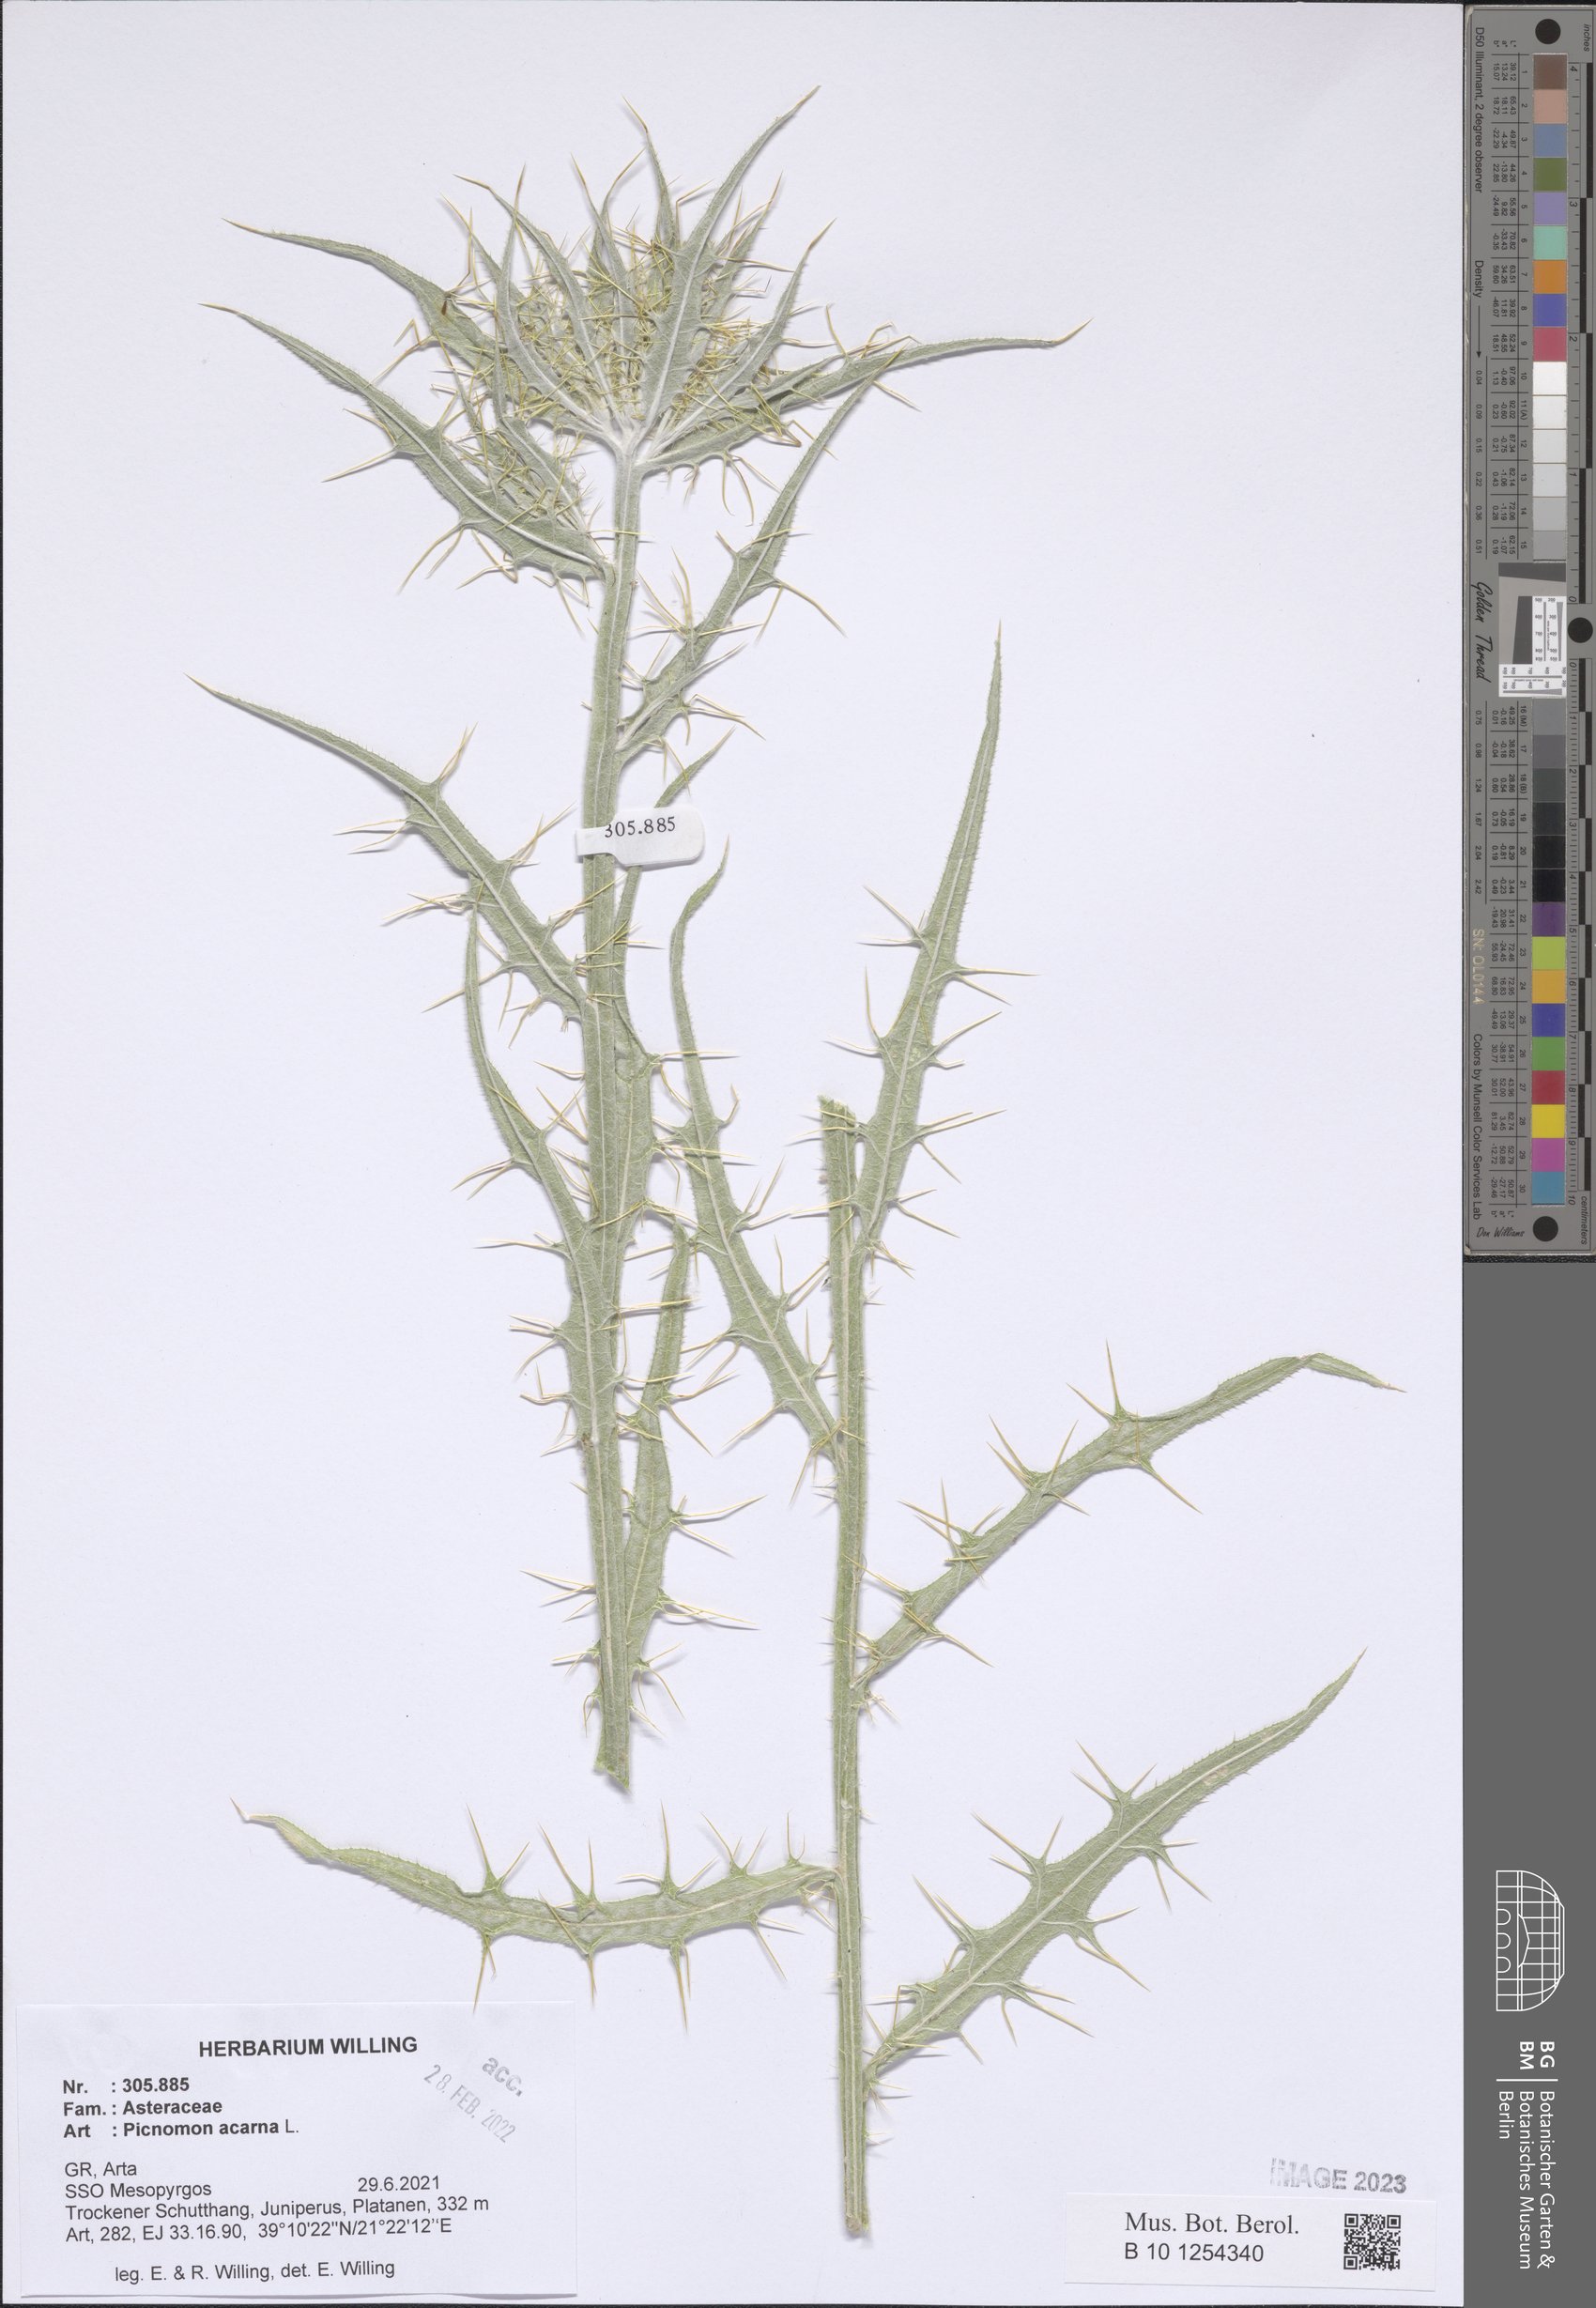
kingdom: Plantae
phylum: Tracheophyta
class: Magnoliopsida
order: Asterales
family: Asteraceae
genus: Picnomon
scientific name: Picnomon acarna
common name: Soldier thistle
